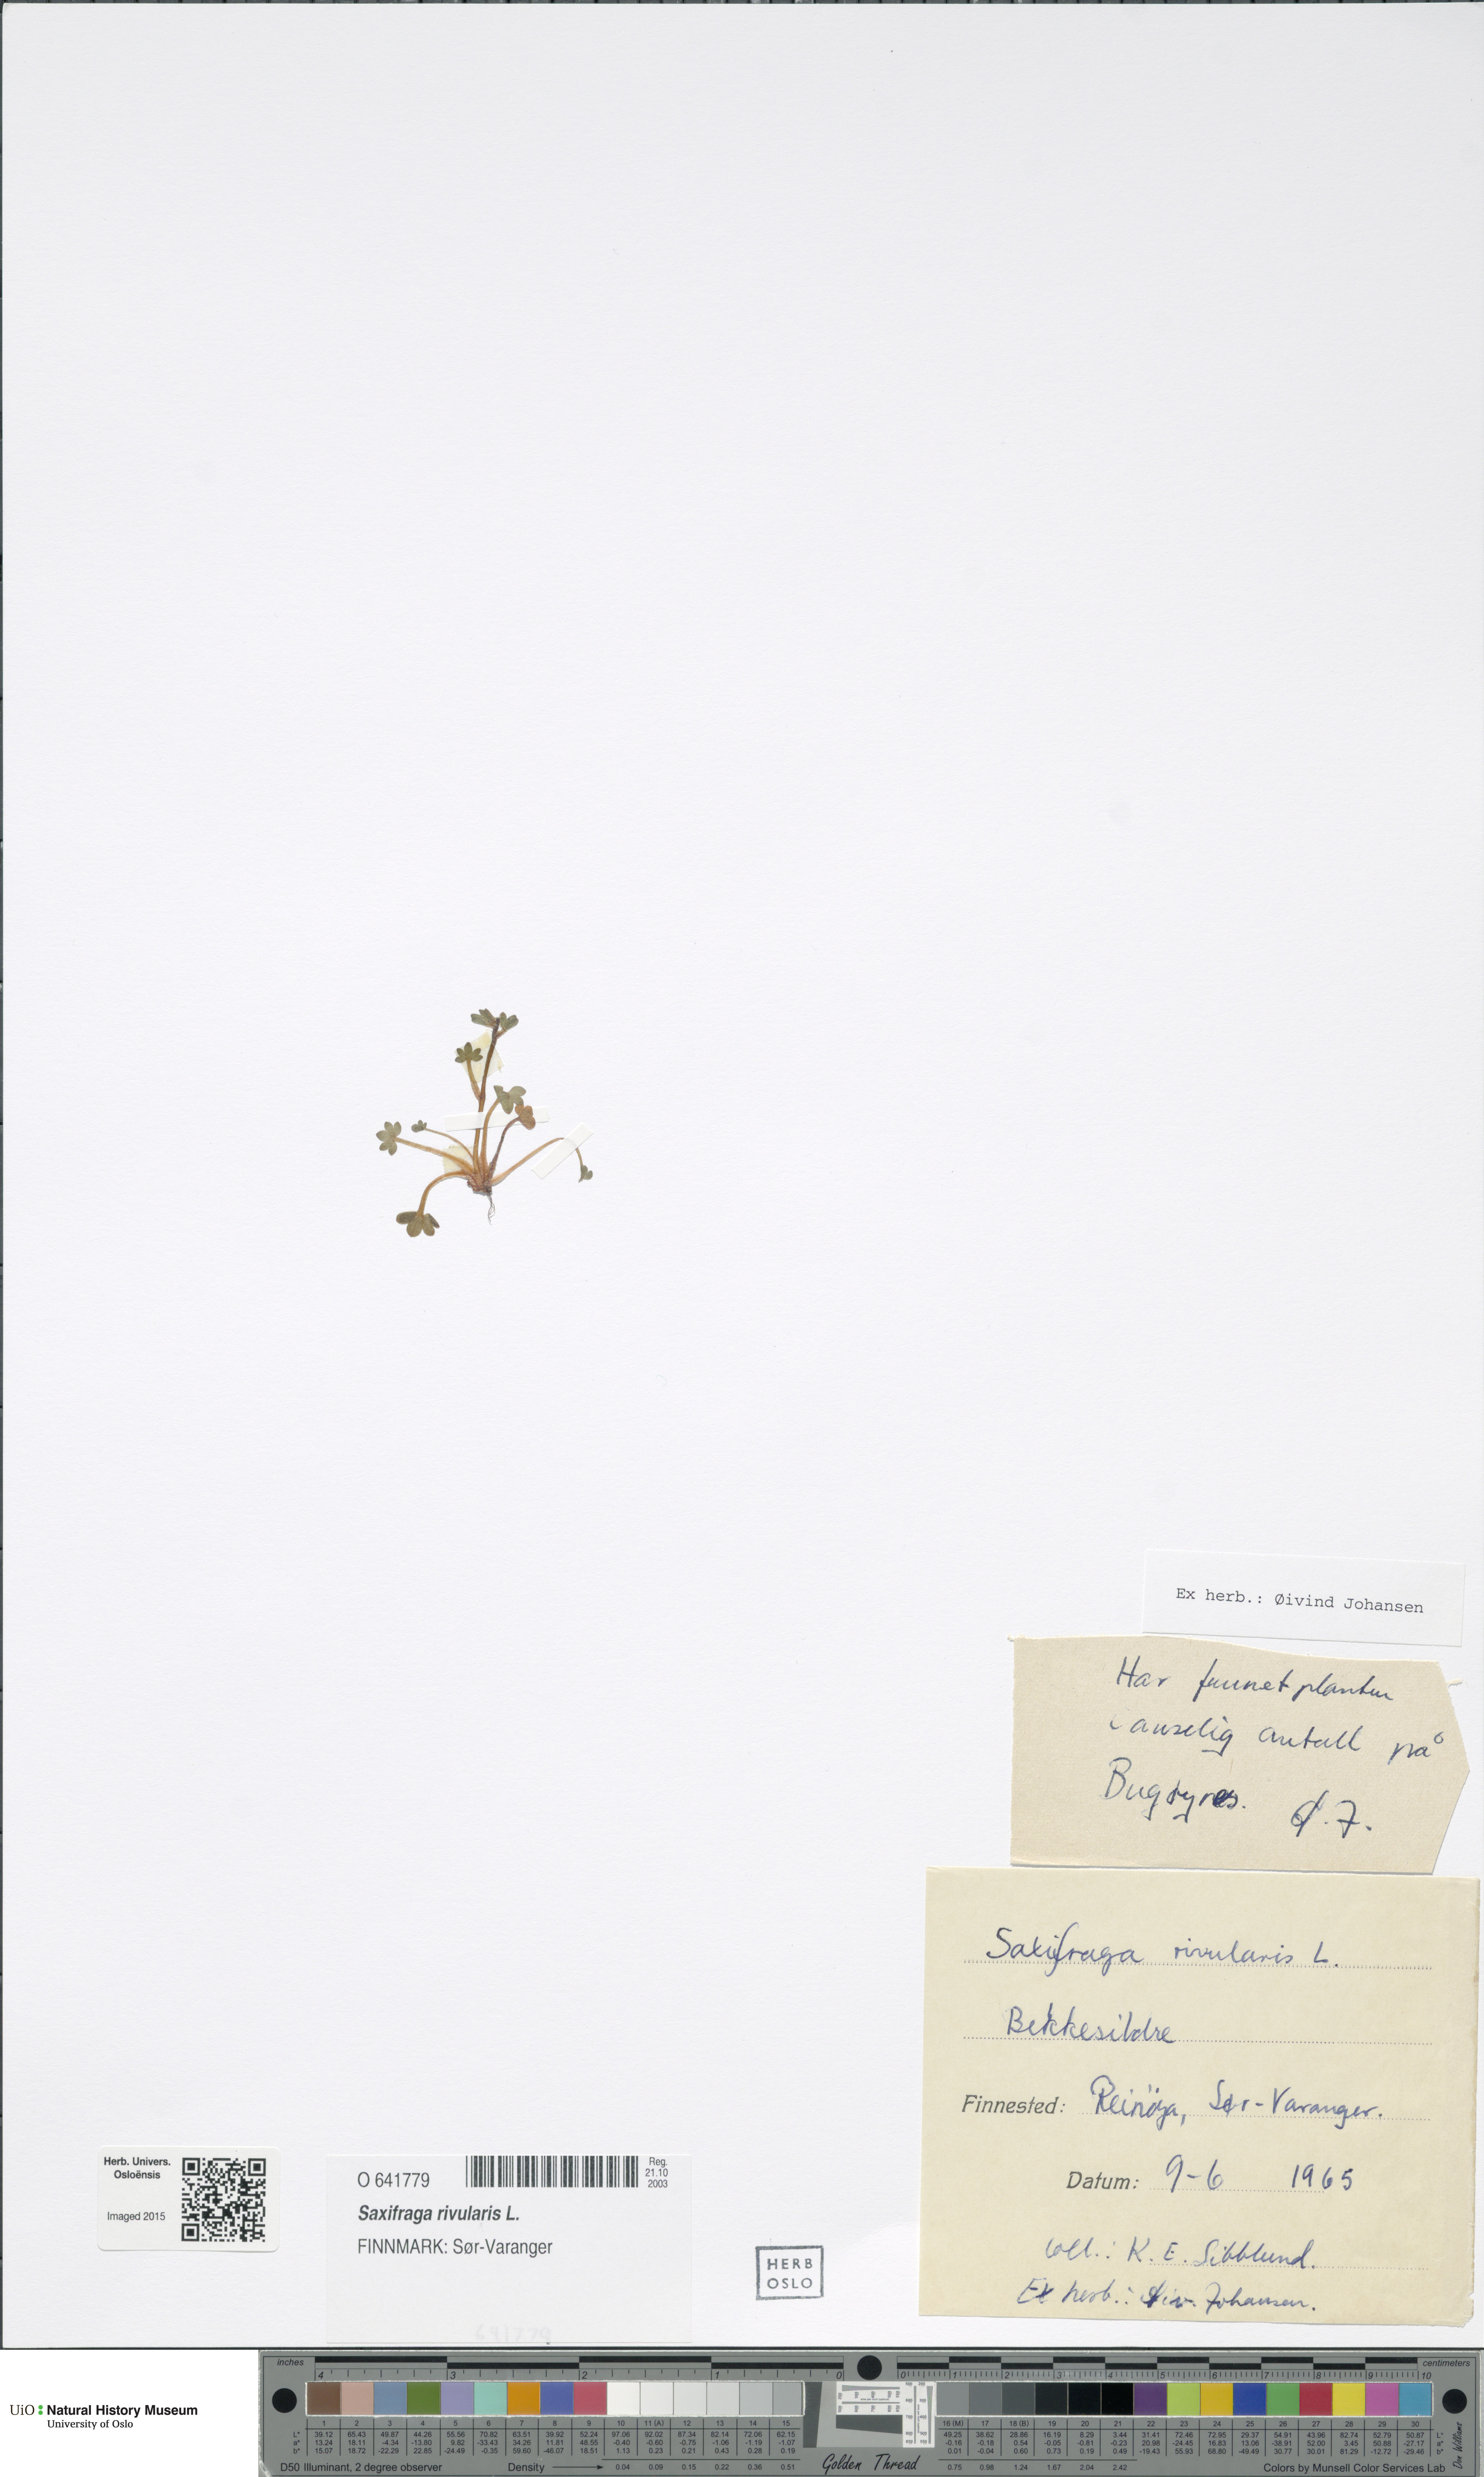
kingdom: Plantae
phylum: Tracheophyta
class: Magnoliopsida
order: Saxifragales
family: Saxifragaceae
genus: Saxifraga
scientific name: Saxifraga rivularis
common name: Highland saxifrage
